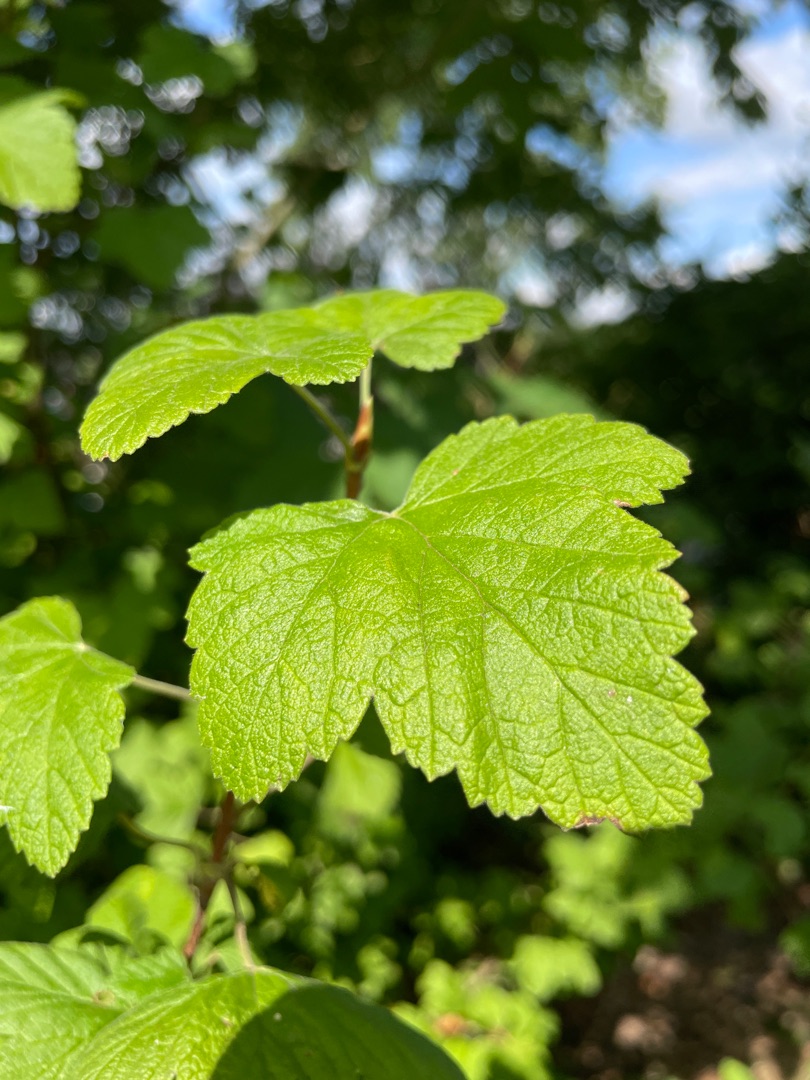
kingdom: Plantae
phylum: Tracheophyta
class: Magnoliopsida
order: Saxifragales
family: Grossulariaceae
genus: Ribes
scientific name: Ribes sanguineum
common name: Blod-ribs
